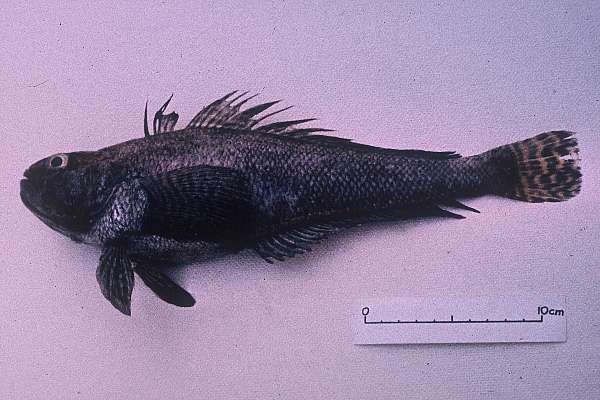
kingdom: Animalia
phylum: Chordata
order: Perciformes
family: Nototheniidae
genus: Trematomus
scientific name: Trematomus hansoni
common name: Striped notothen
